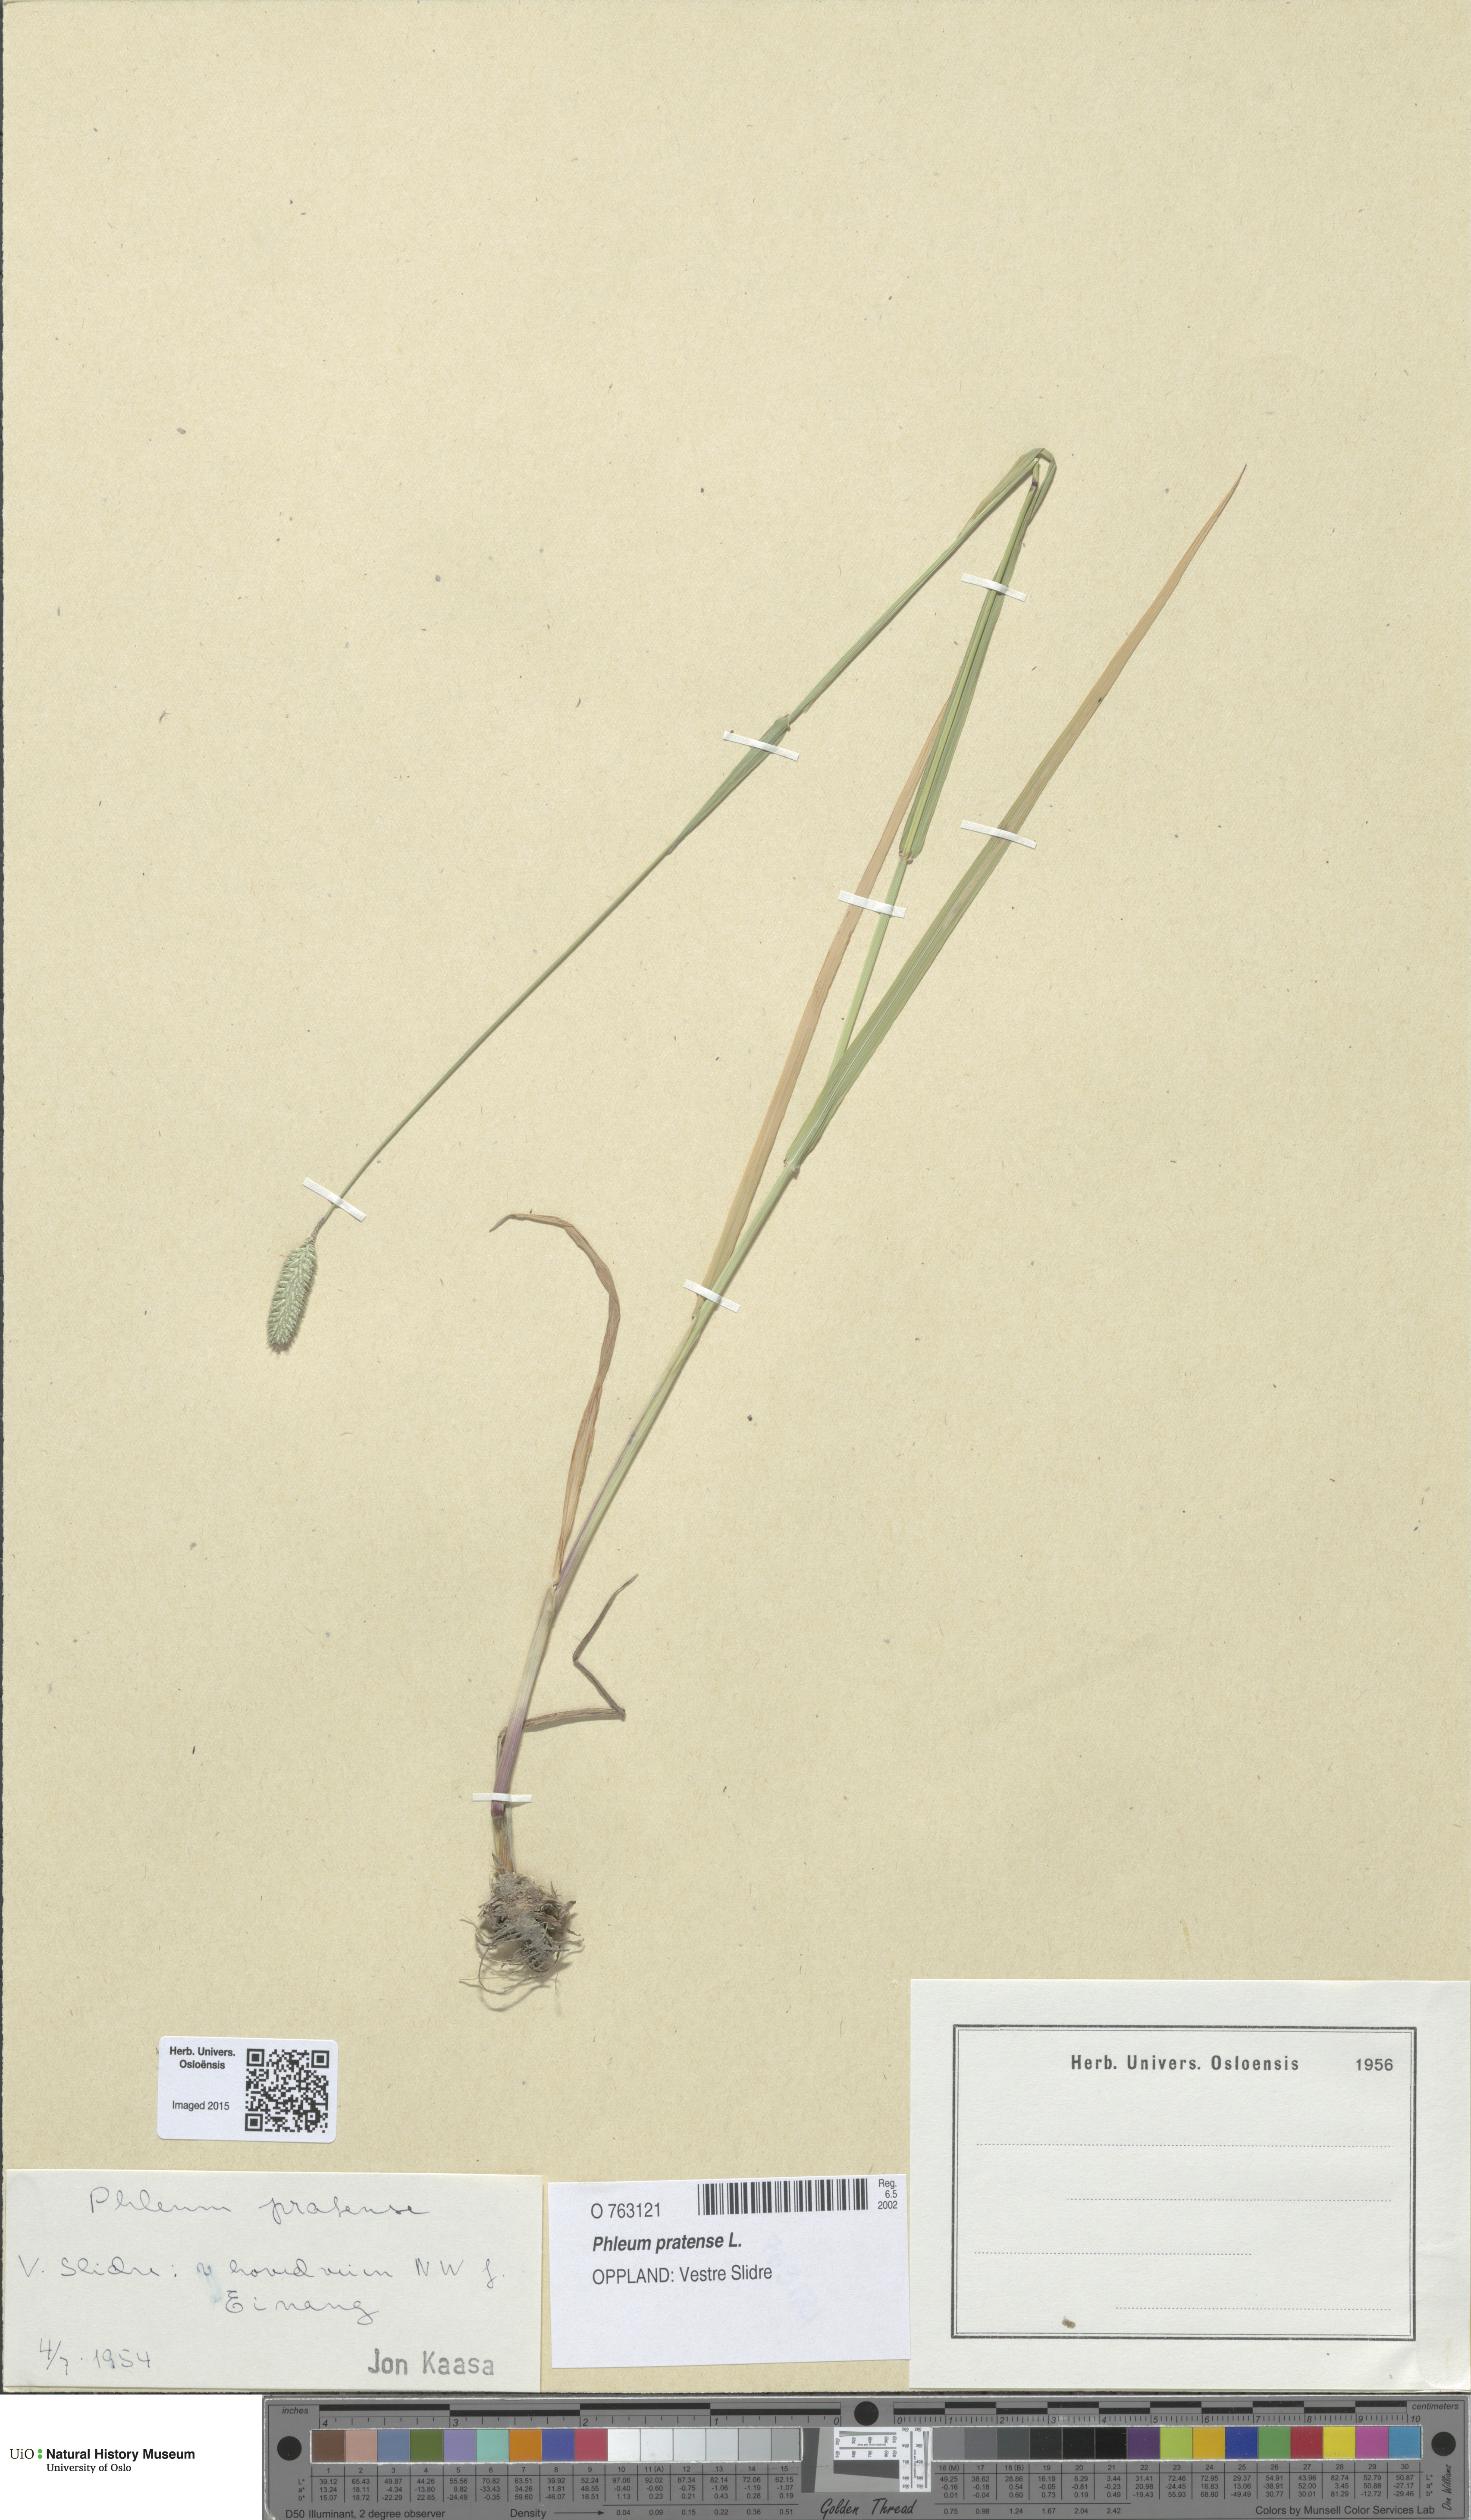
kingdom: Plantae
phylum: Tracheophyta
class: Liliopsida
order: Poales
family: Poaceae
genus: Phleum
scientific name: Phleum pratense
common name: Timothy grass
